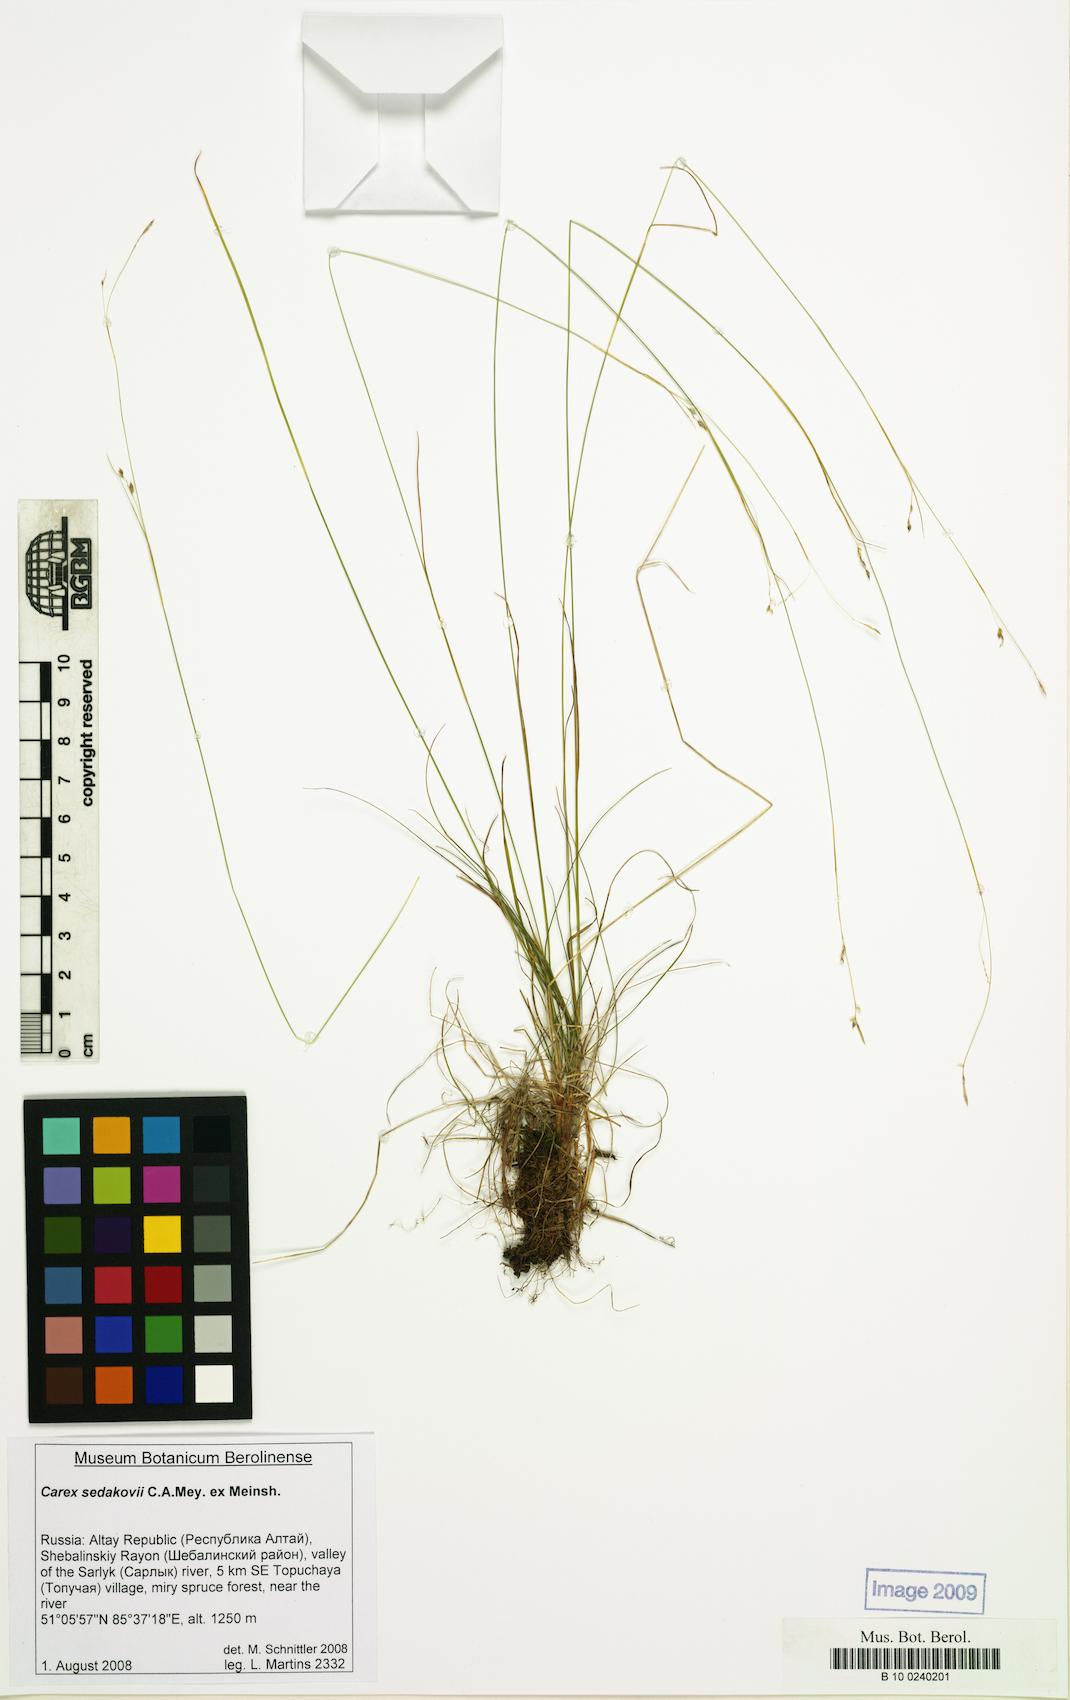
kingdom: Plantae
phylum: Tracheophyta
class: Liliopsida
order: Poales
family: Cyperaceae
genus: Carex
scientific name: Carex sedakowii
